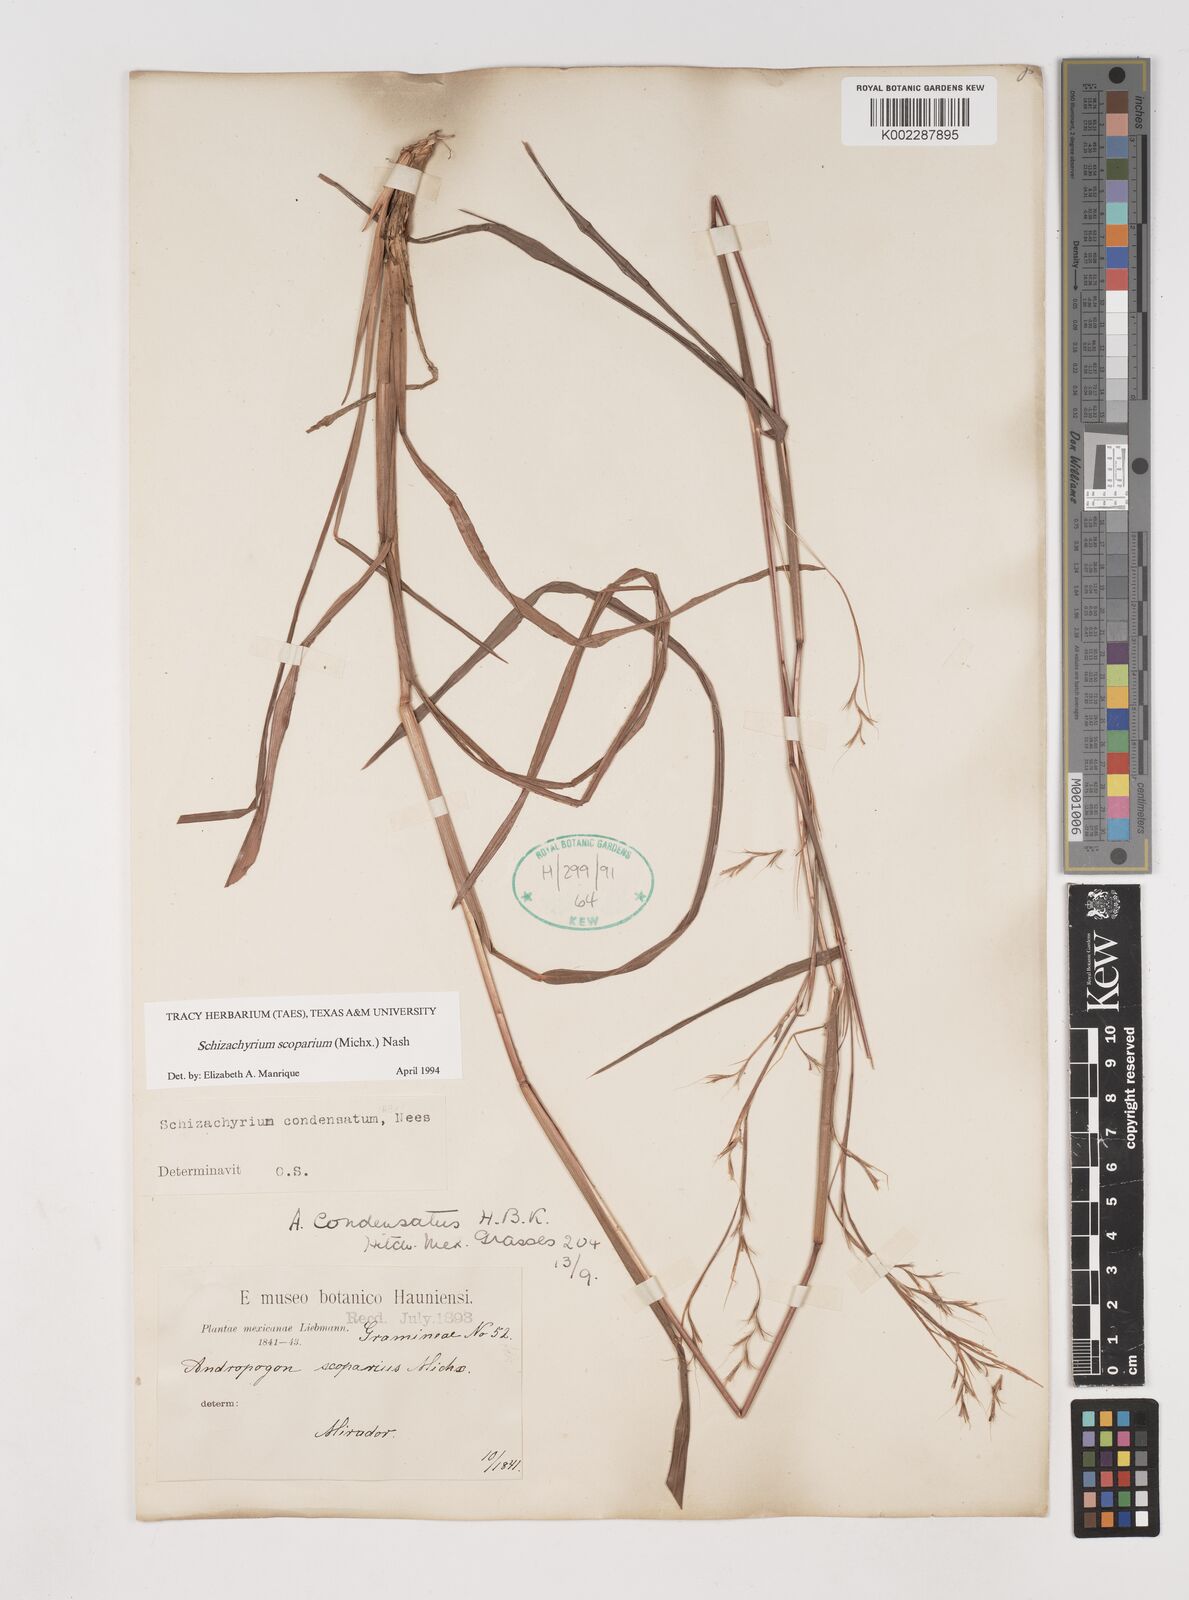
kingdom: Plantae
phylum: Tracheophyta
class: Liliopsida
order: Poales
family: Poaceae
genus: Schizachyrium
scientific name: Schizachyrium scoparium
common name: Little bluestem
